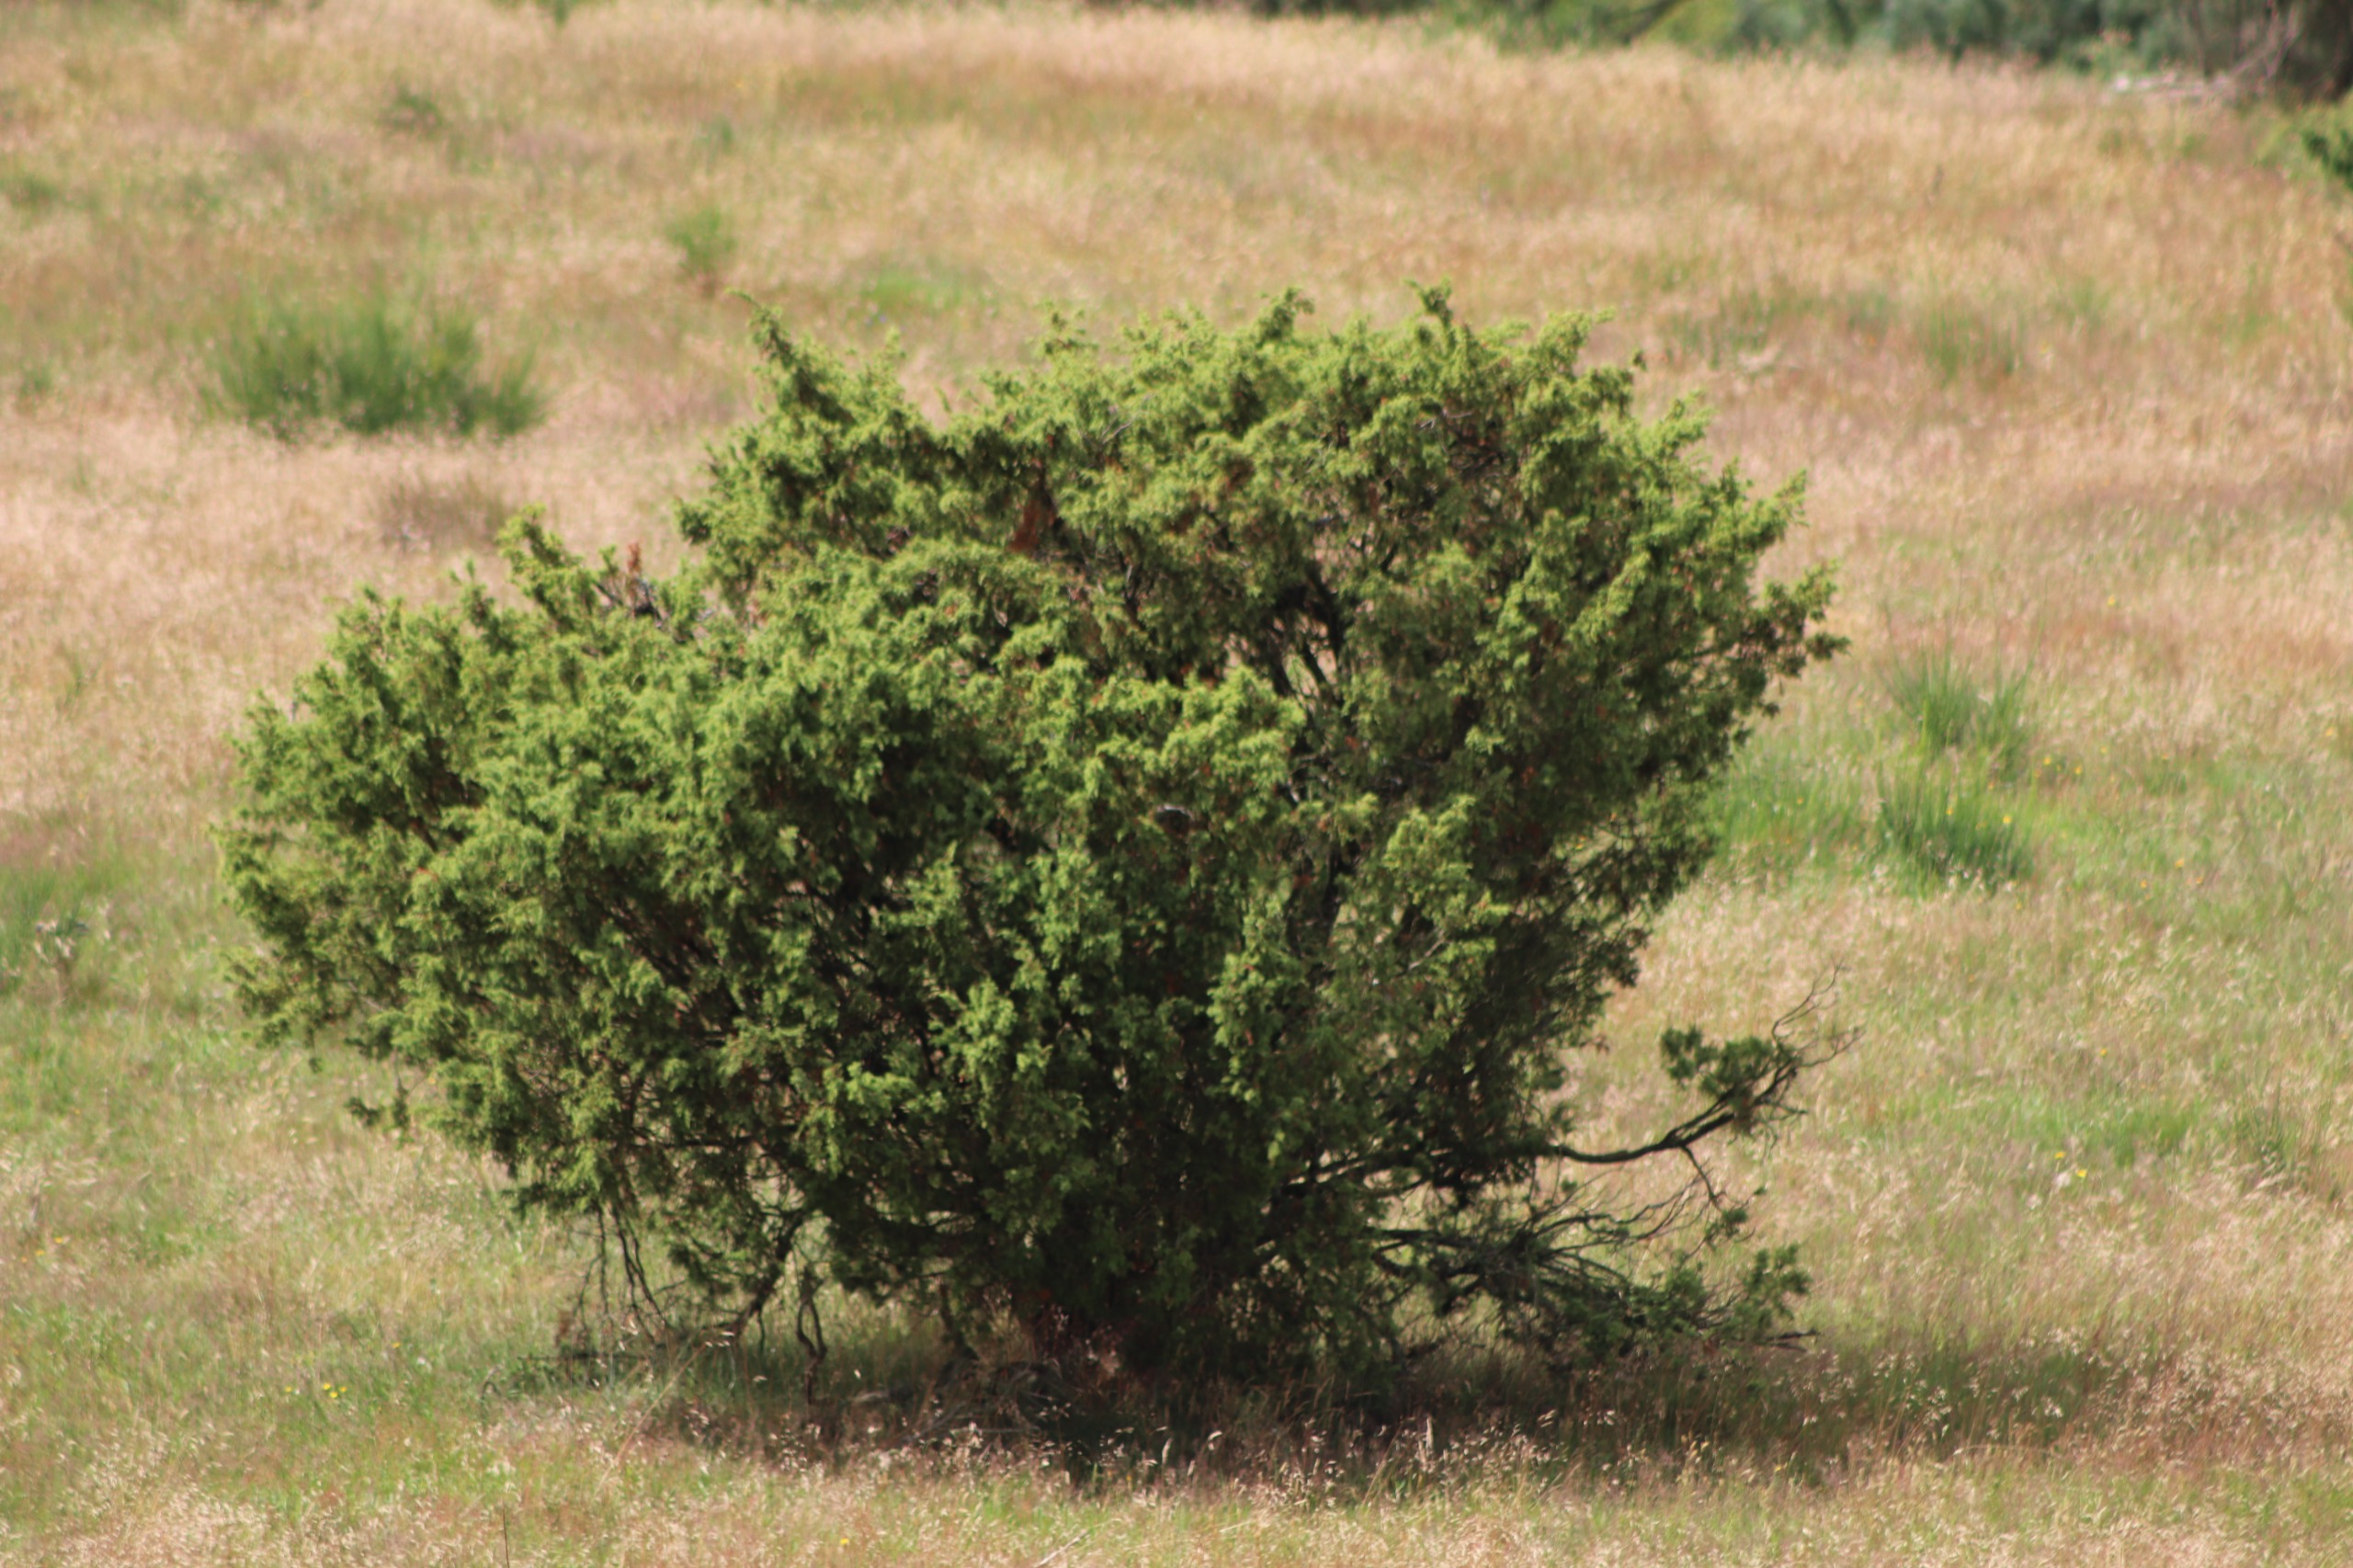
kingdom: Plantae
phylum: Tracheophyta
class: Pinopsida
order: Pinales
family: Cupressaceae
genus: Juniperus
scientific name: Juniperus communis
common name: Almindelig ene
